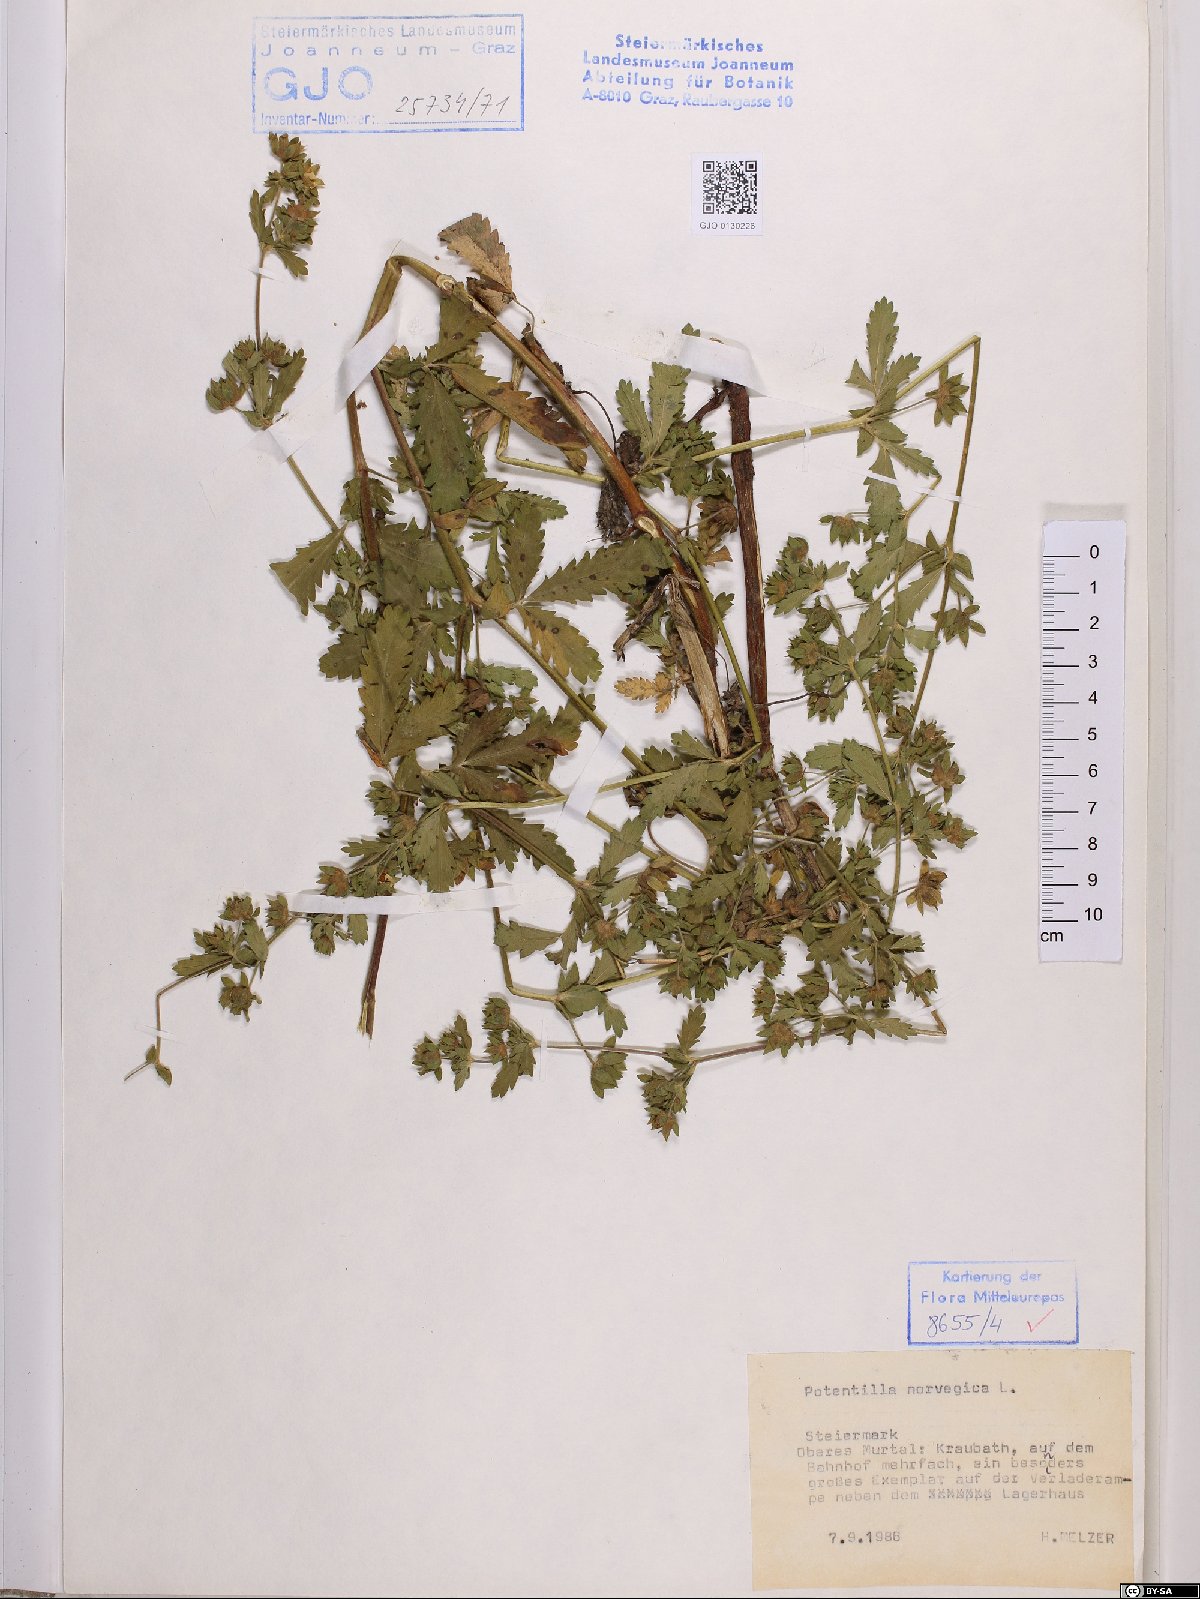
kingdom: Plantae
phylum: Tracheophyta
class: Magnoliopsida
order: Rosales
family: Rosaceae
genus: Potentilla
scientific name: Potentilla norvegica
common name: Ternate-leaved cinquefoil
